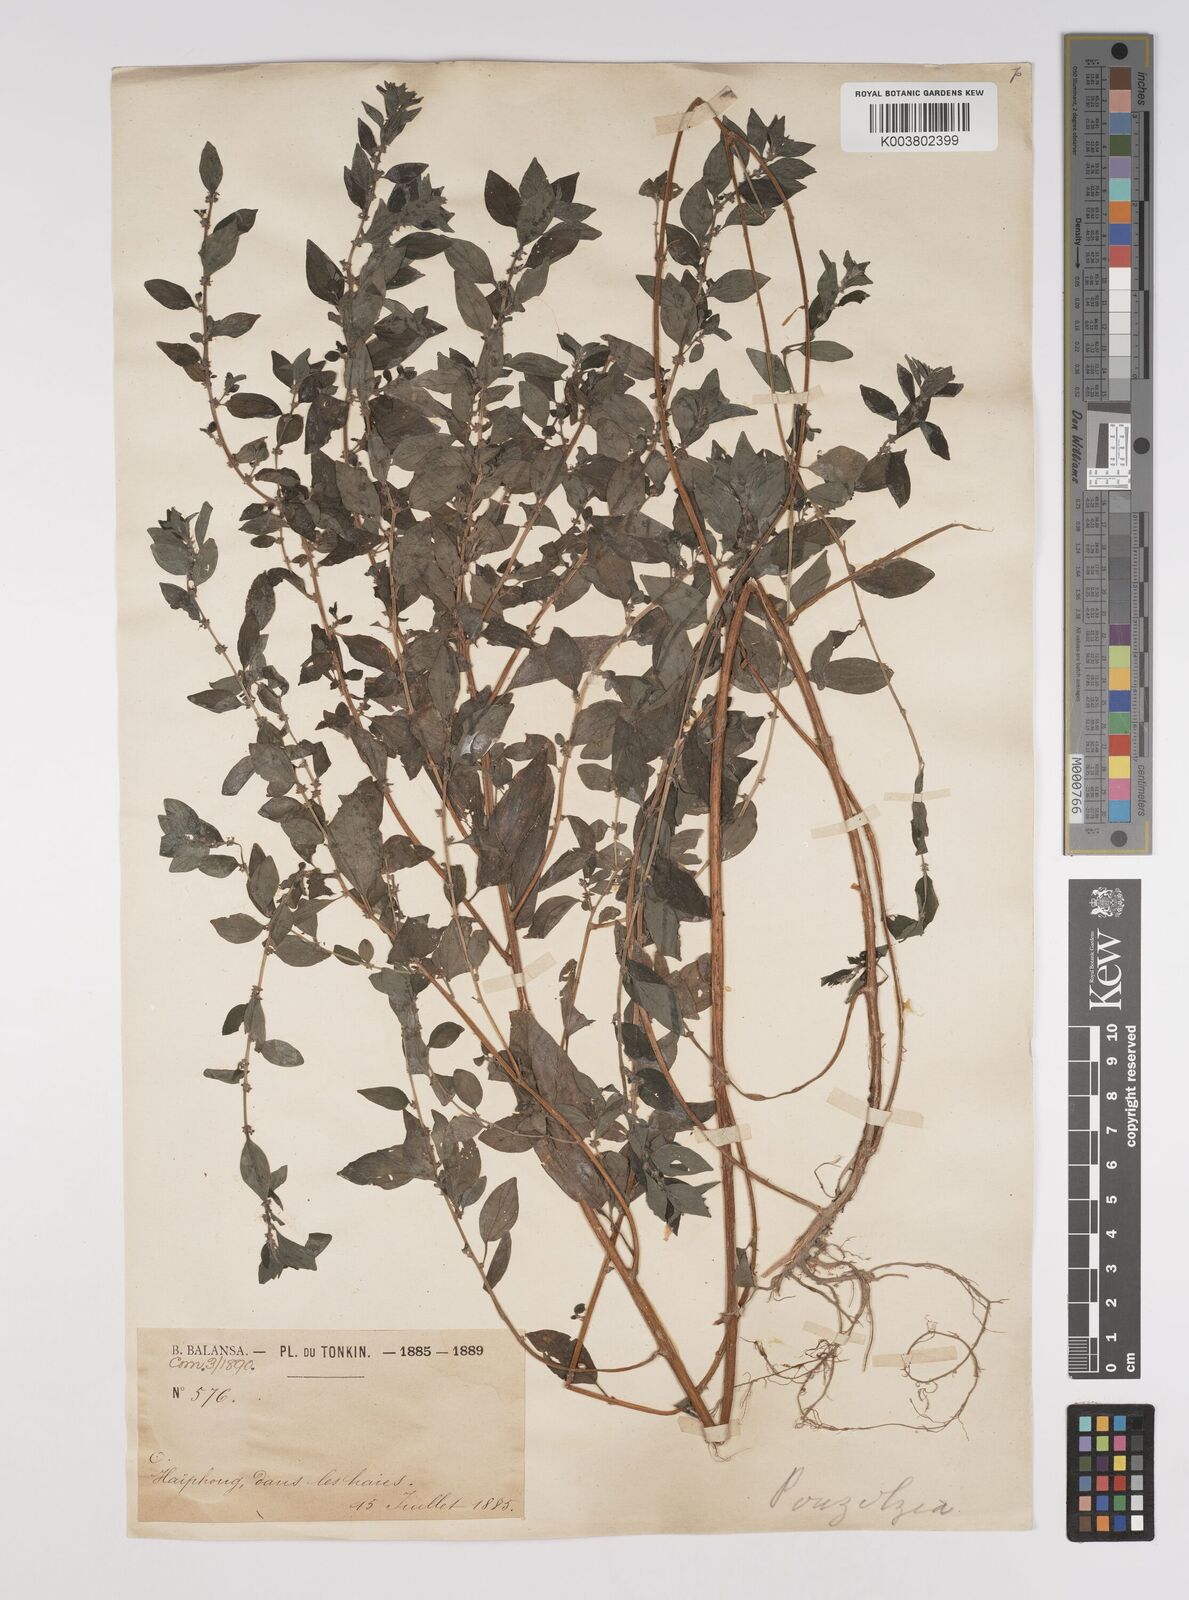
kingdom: Plantae
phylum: Tracheophyta
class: Magnoliopsida
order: Rosales
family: Urticaceae
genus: Pouzolzia
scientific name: Pouzolzia zeylanica
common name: Graceful pouzolzsbush
